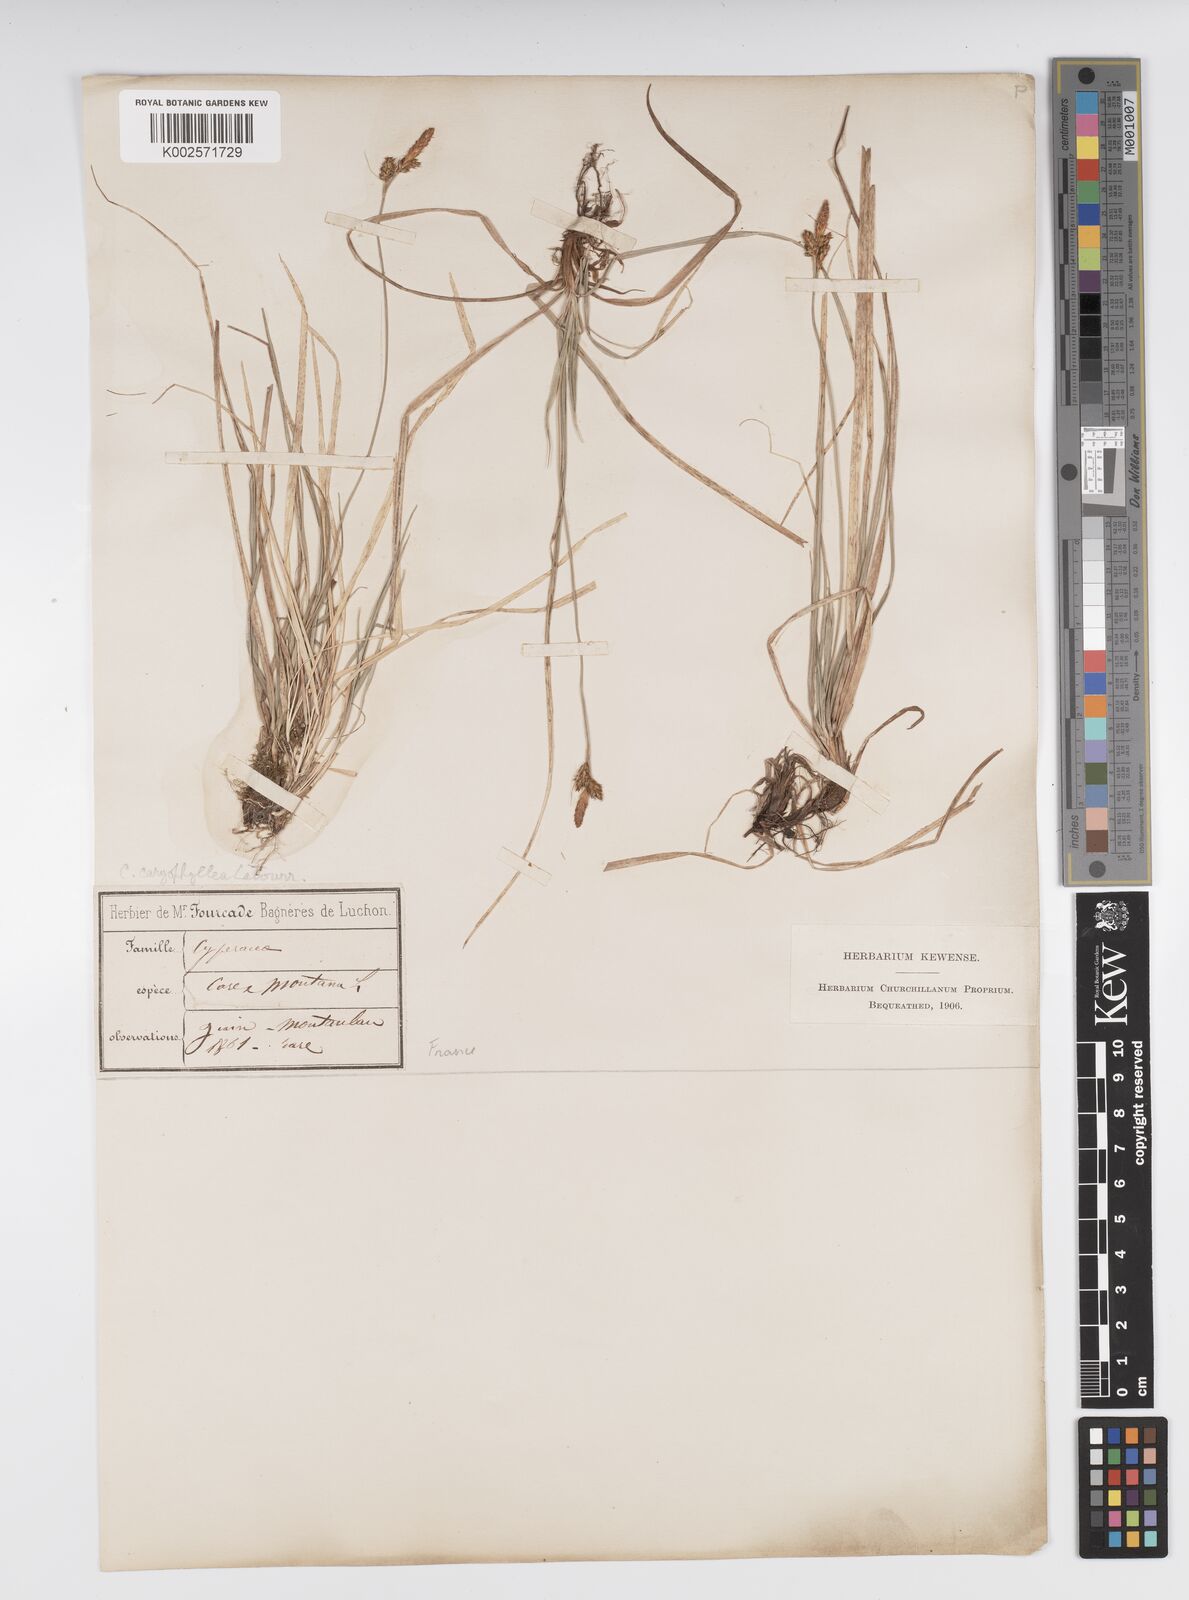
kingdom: Plantae
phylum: Tracheophyta
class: Liliopsida
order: Poales
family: Cyperaceae
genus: Carex
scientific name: Carex caryophyllea
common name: Spring sedge
